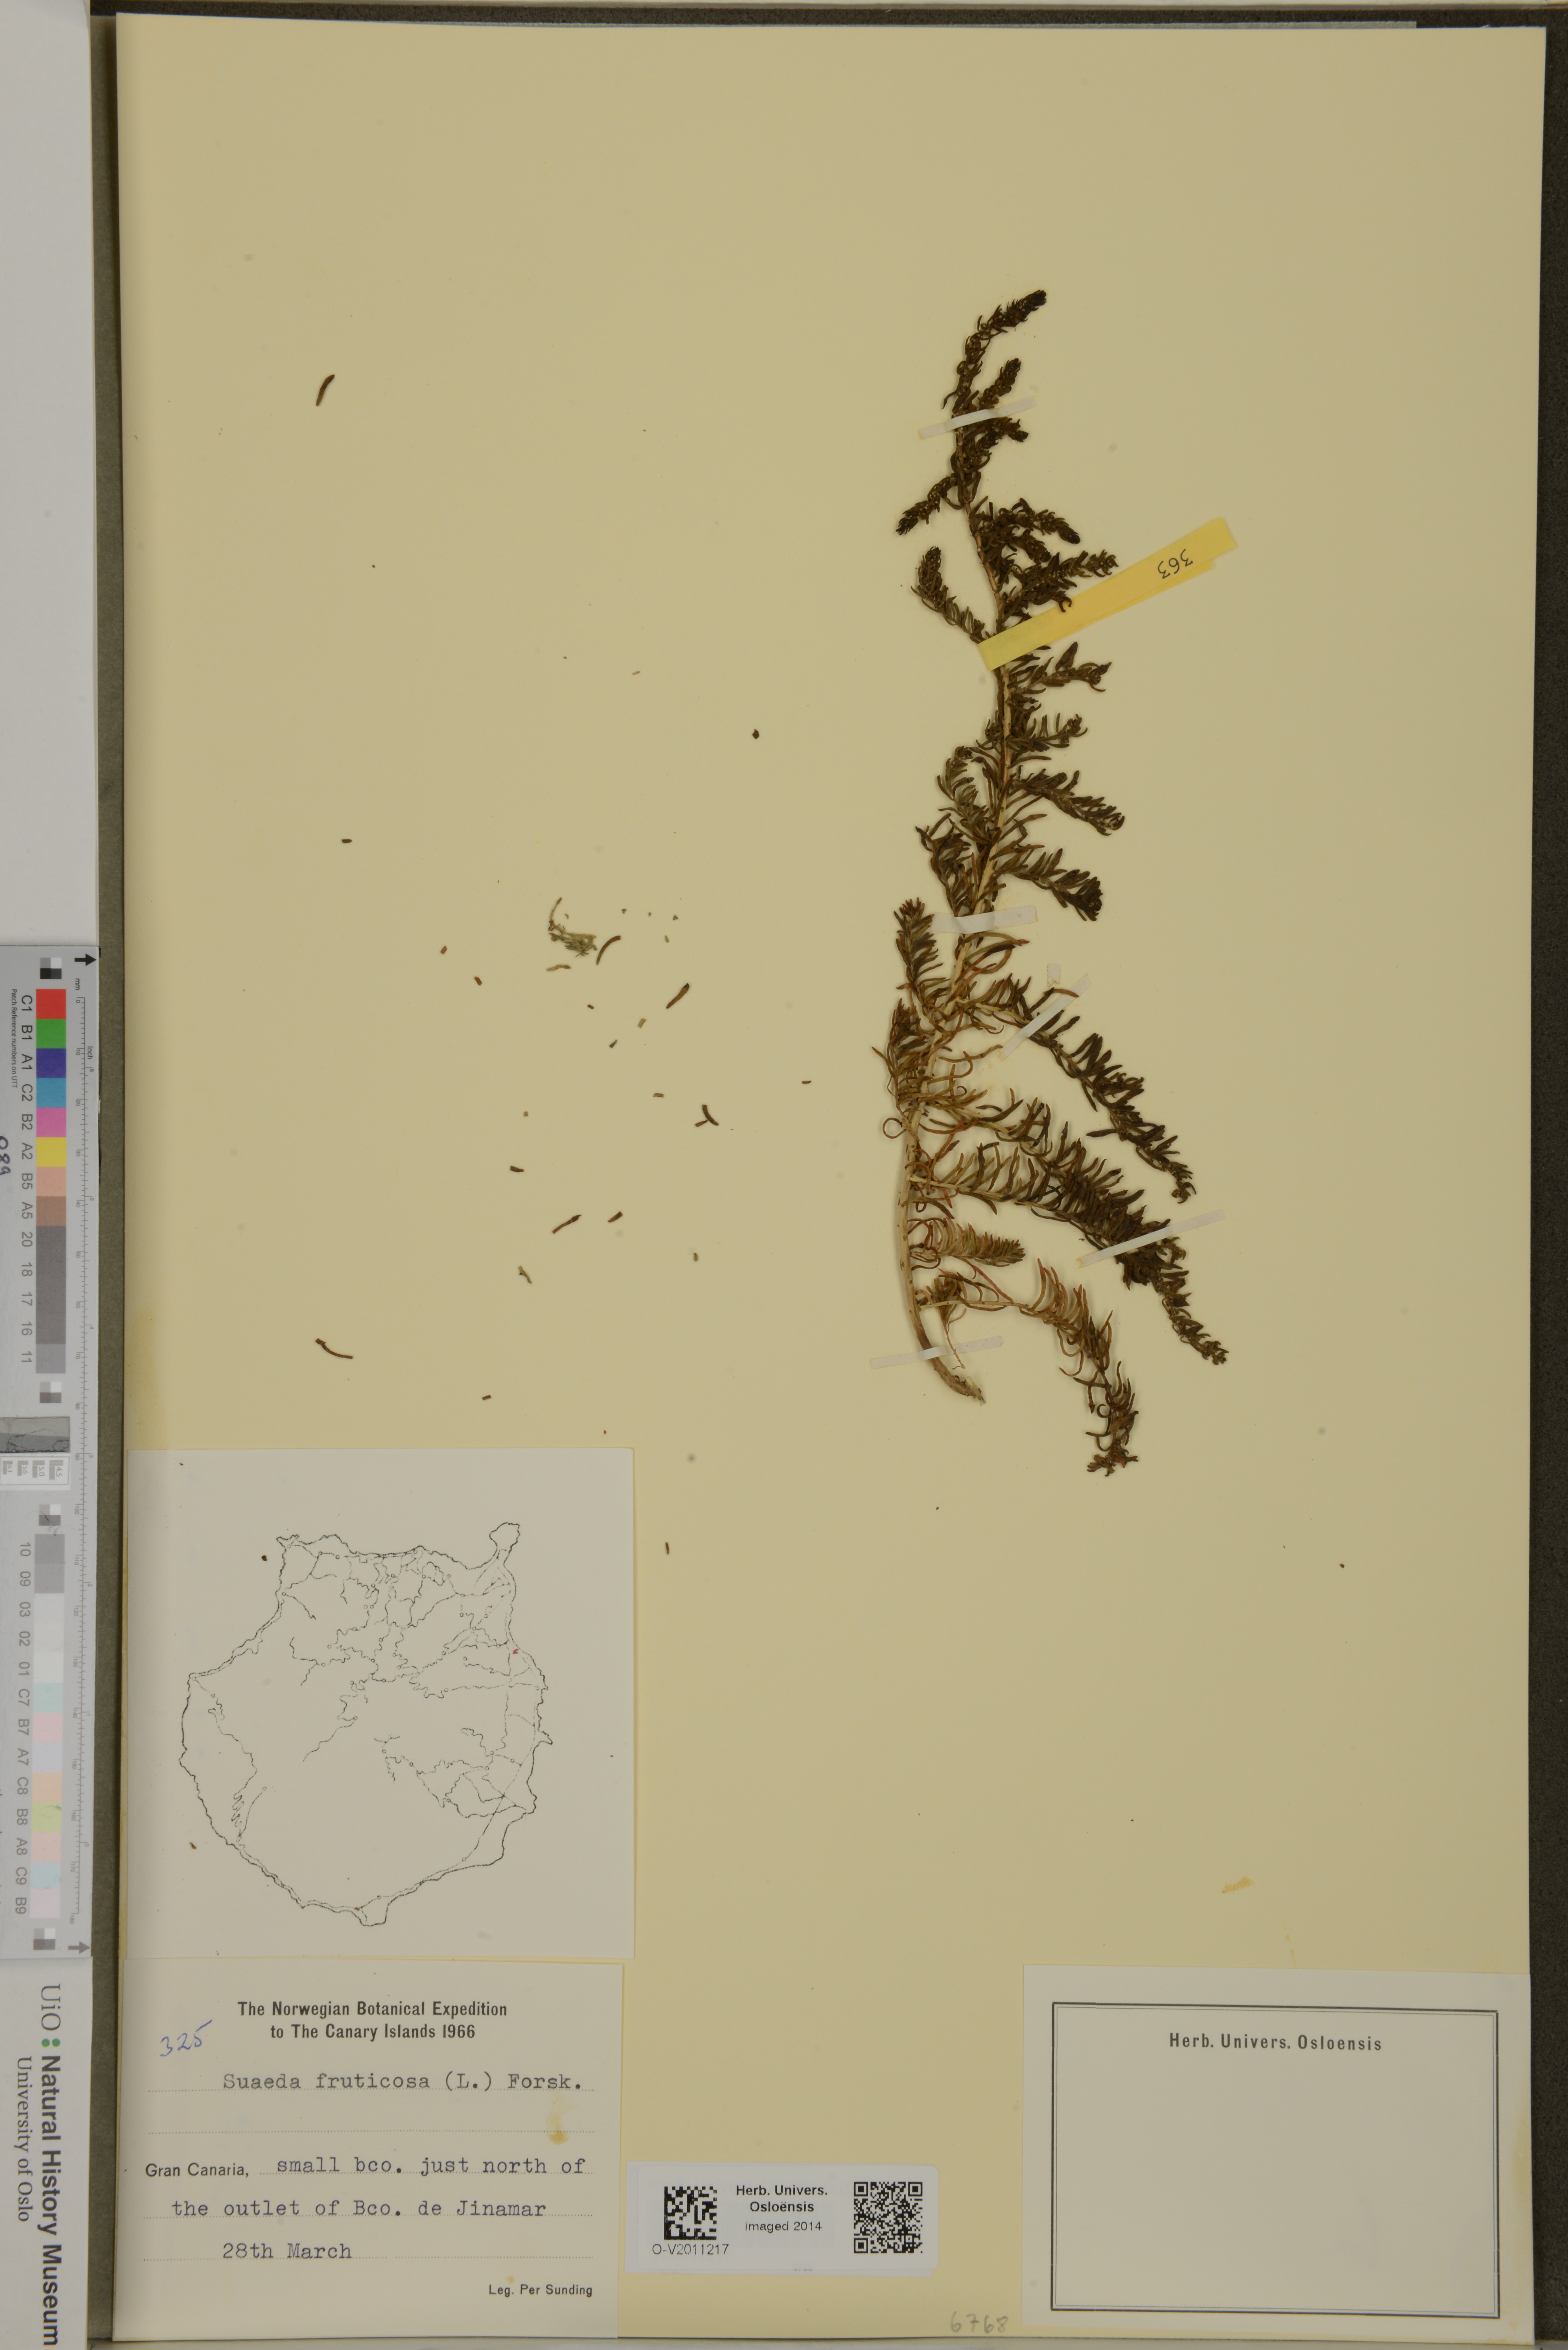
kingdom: Plantae
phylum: Tracheophyta
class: Magnoliopsida
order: Caryophyllales
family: Amaranthaceae
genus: Suaeda
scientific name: Suaeda vera
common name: Shrubby sea-blite
